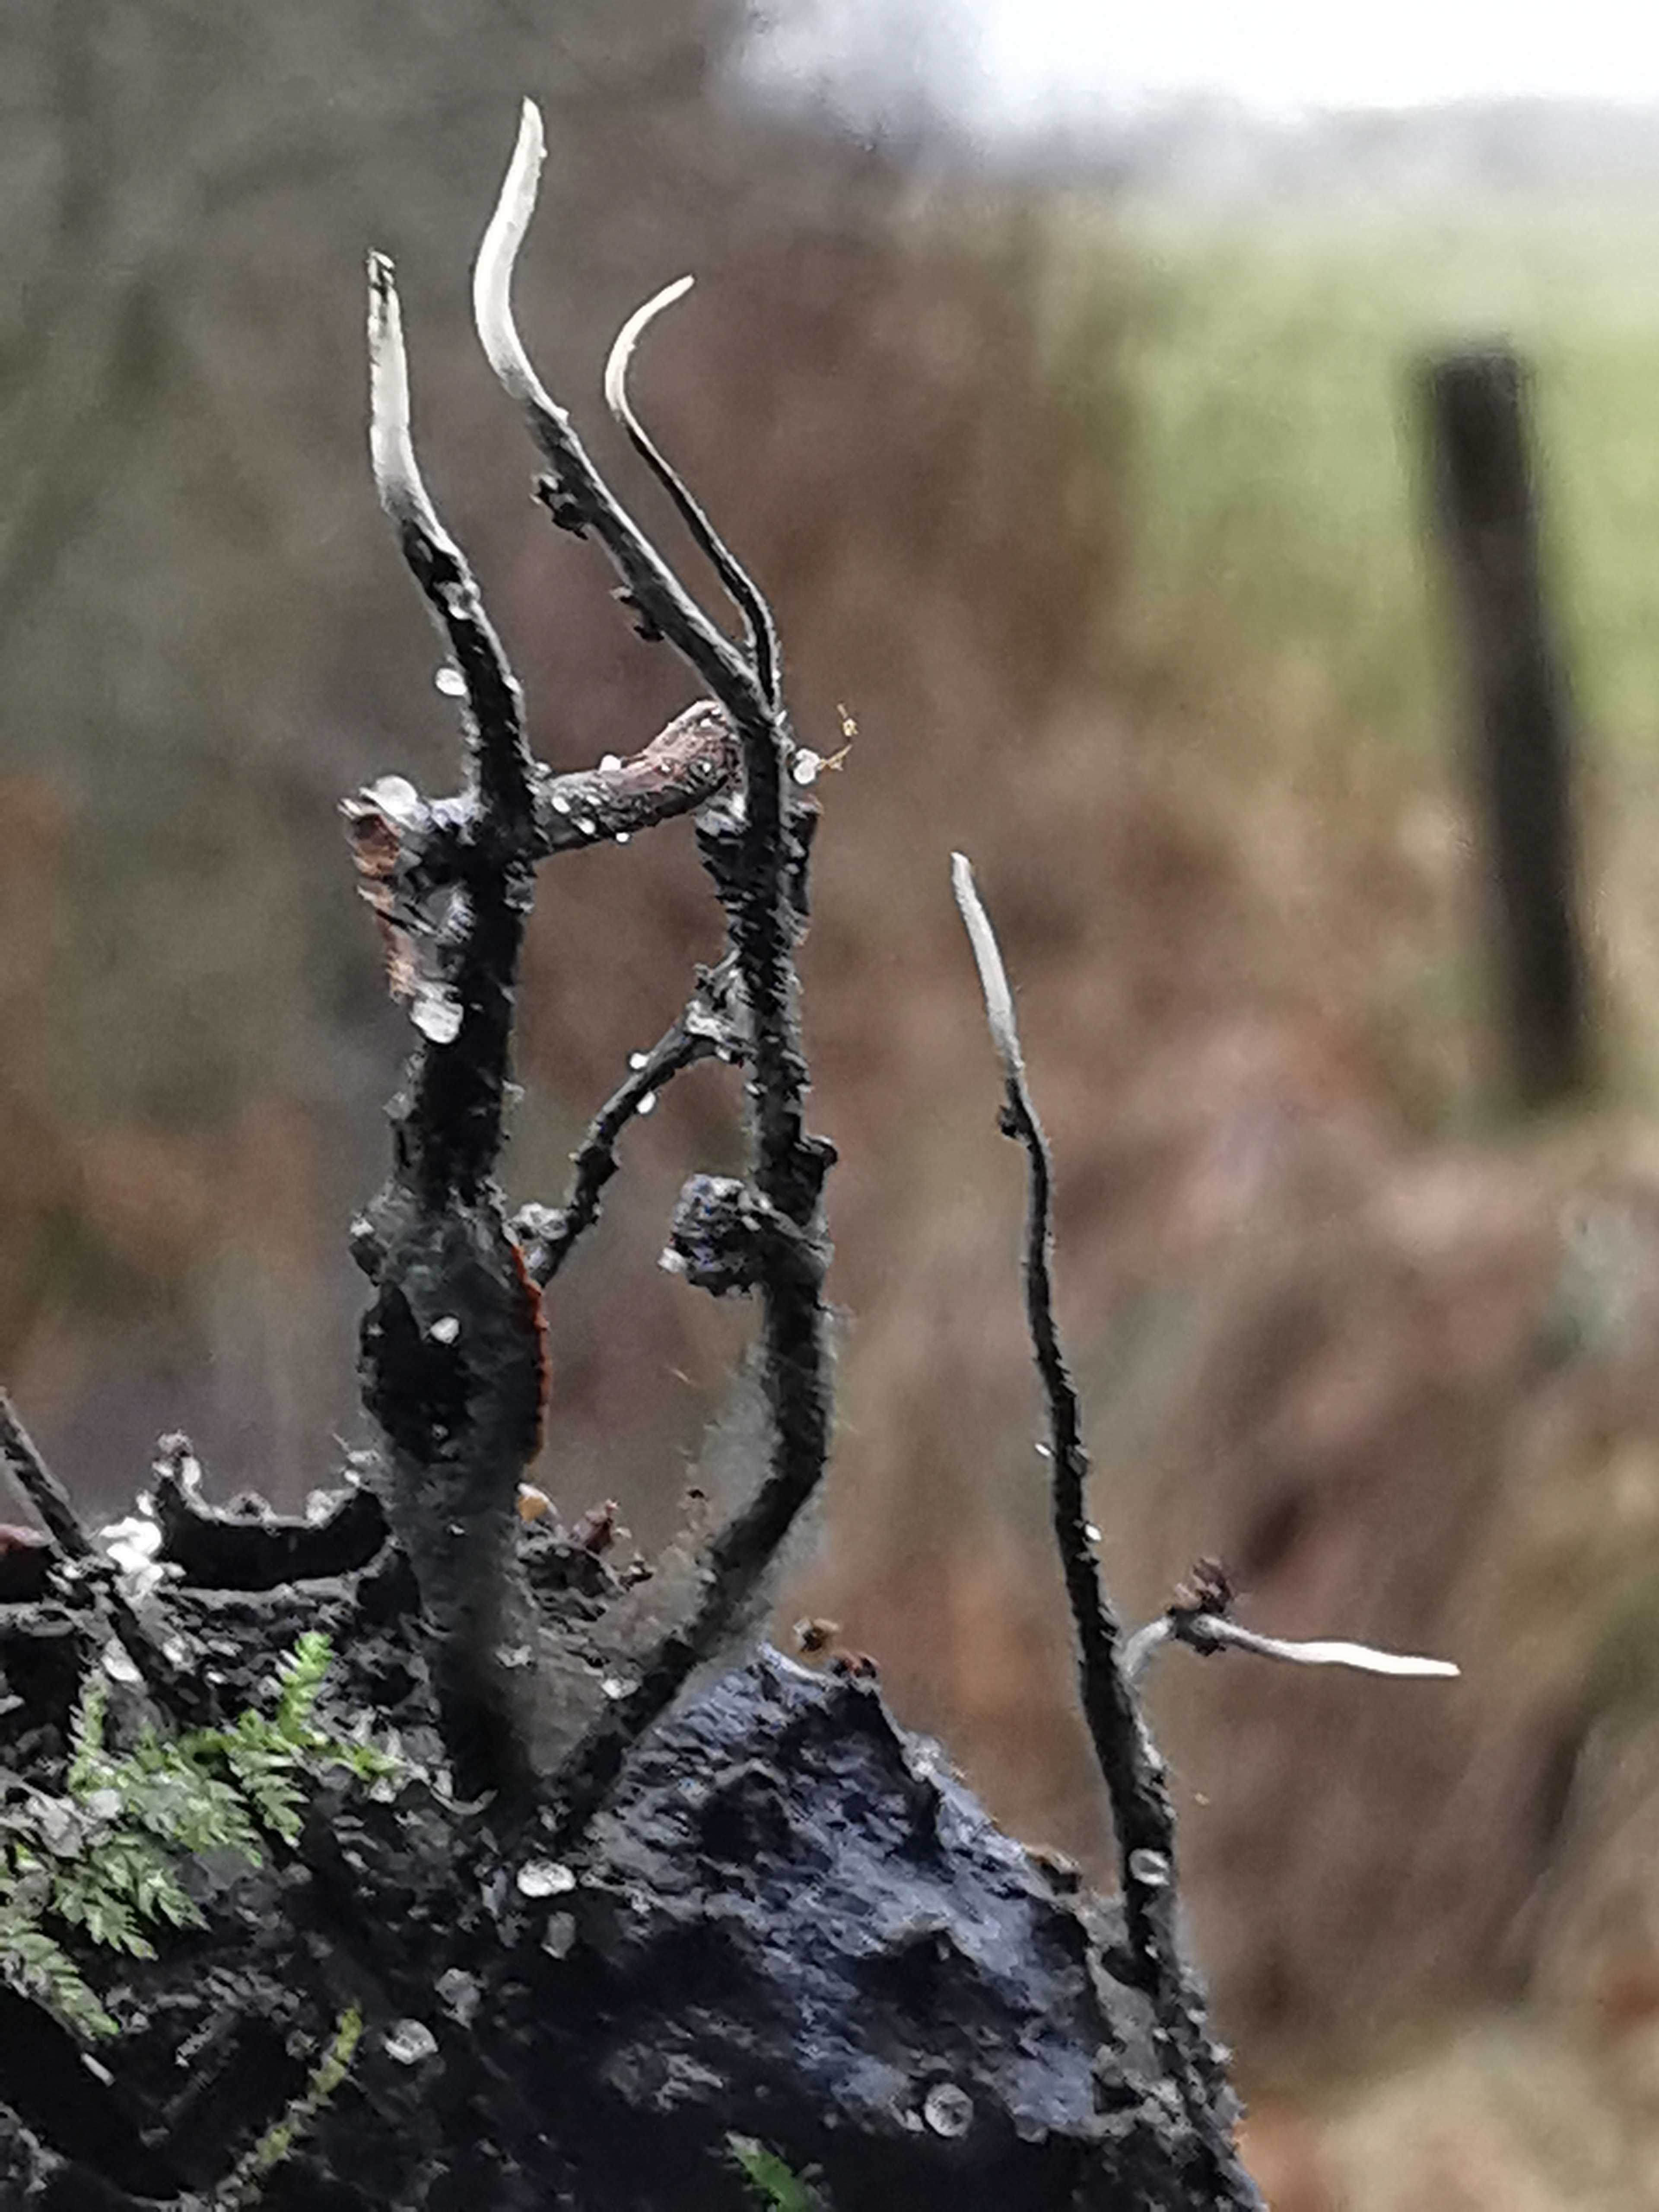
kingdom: Fungi
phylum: Ascomycota
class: Sordariomycetes
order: Xylariales
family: Xylariaceae
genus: Xylaria
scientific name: Xylaria carpophila
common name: bogskål-stødsvamp
